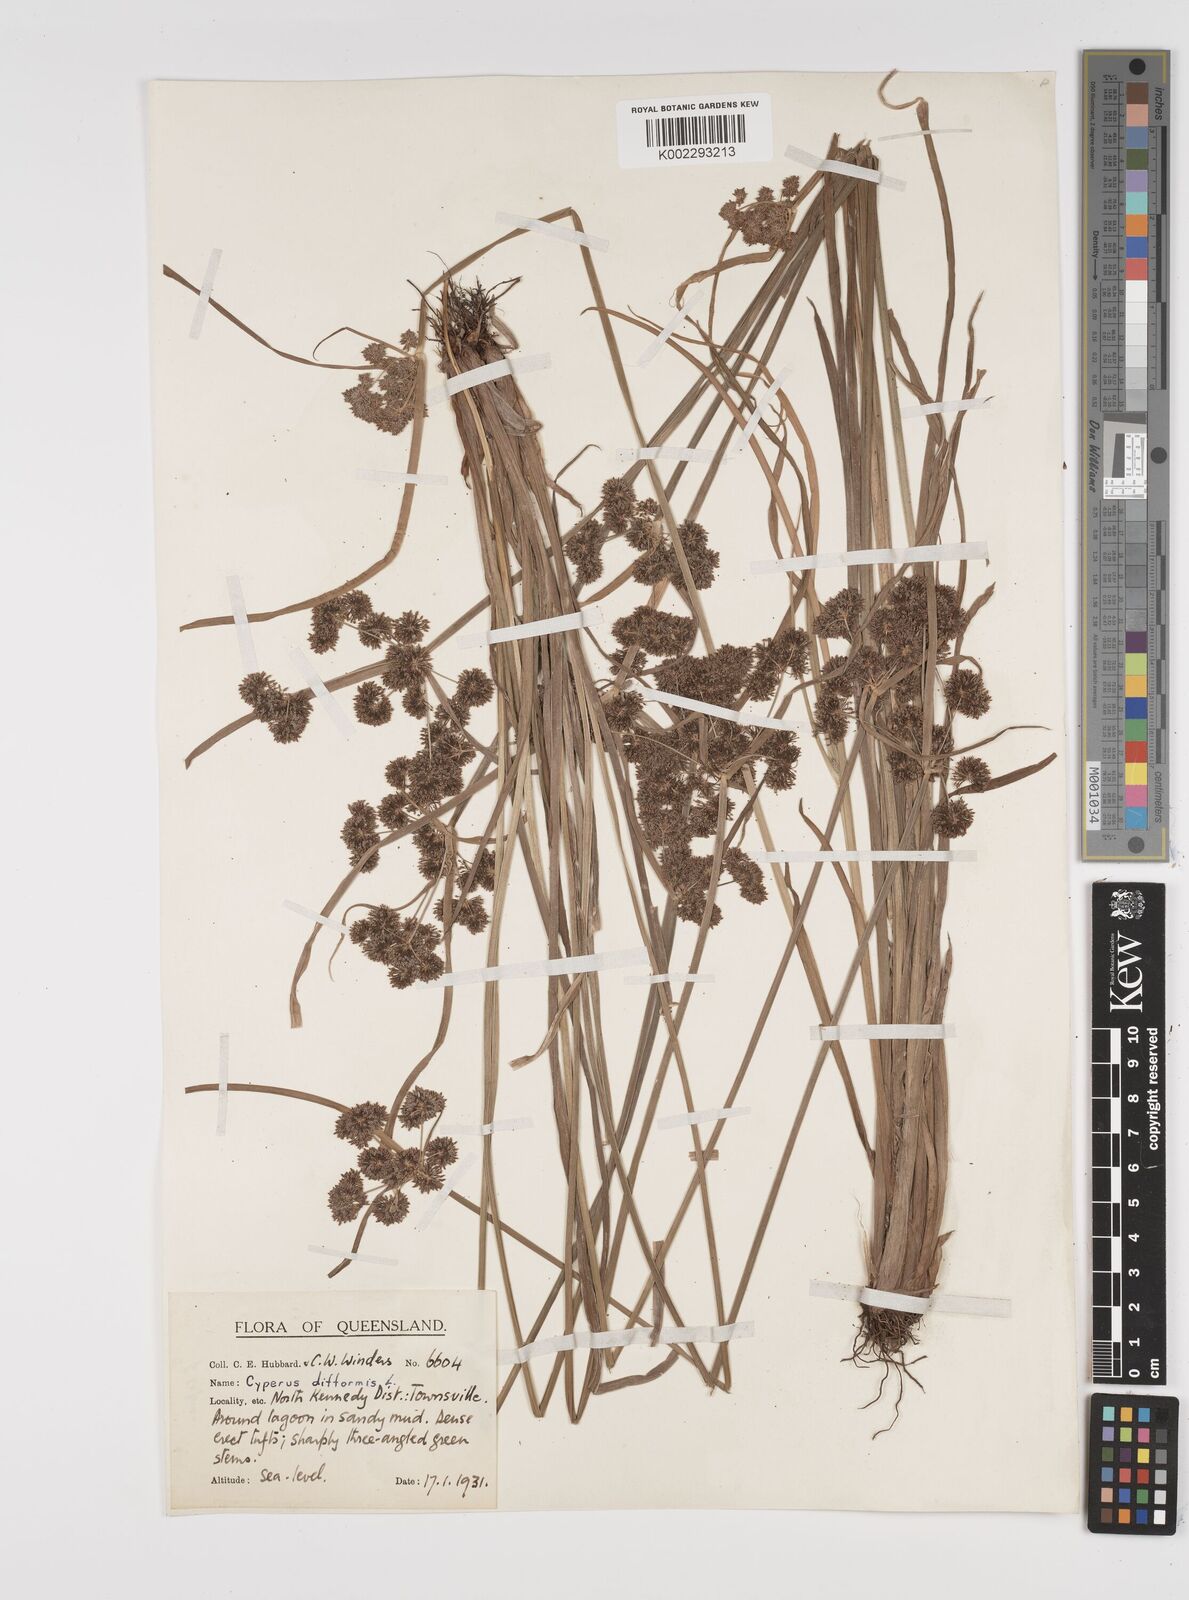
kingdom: Plantae
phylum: Tracheophyta
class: Liliopsida
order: Poales
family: Cyperaceae
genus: Cyperus
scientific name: Cyperus difformis
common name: Variable flatsedge
